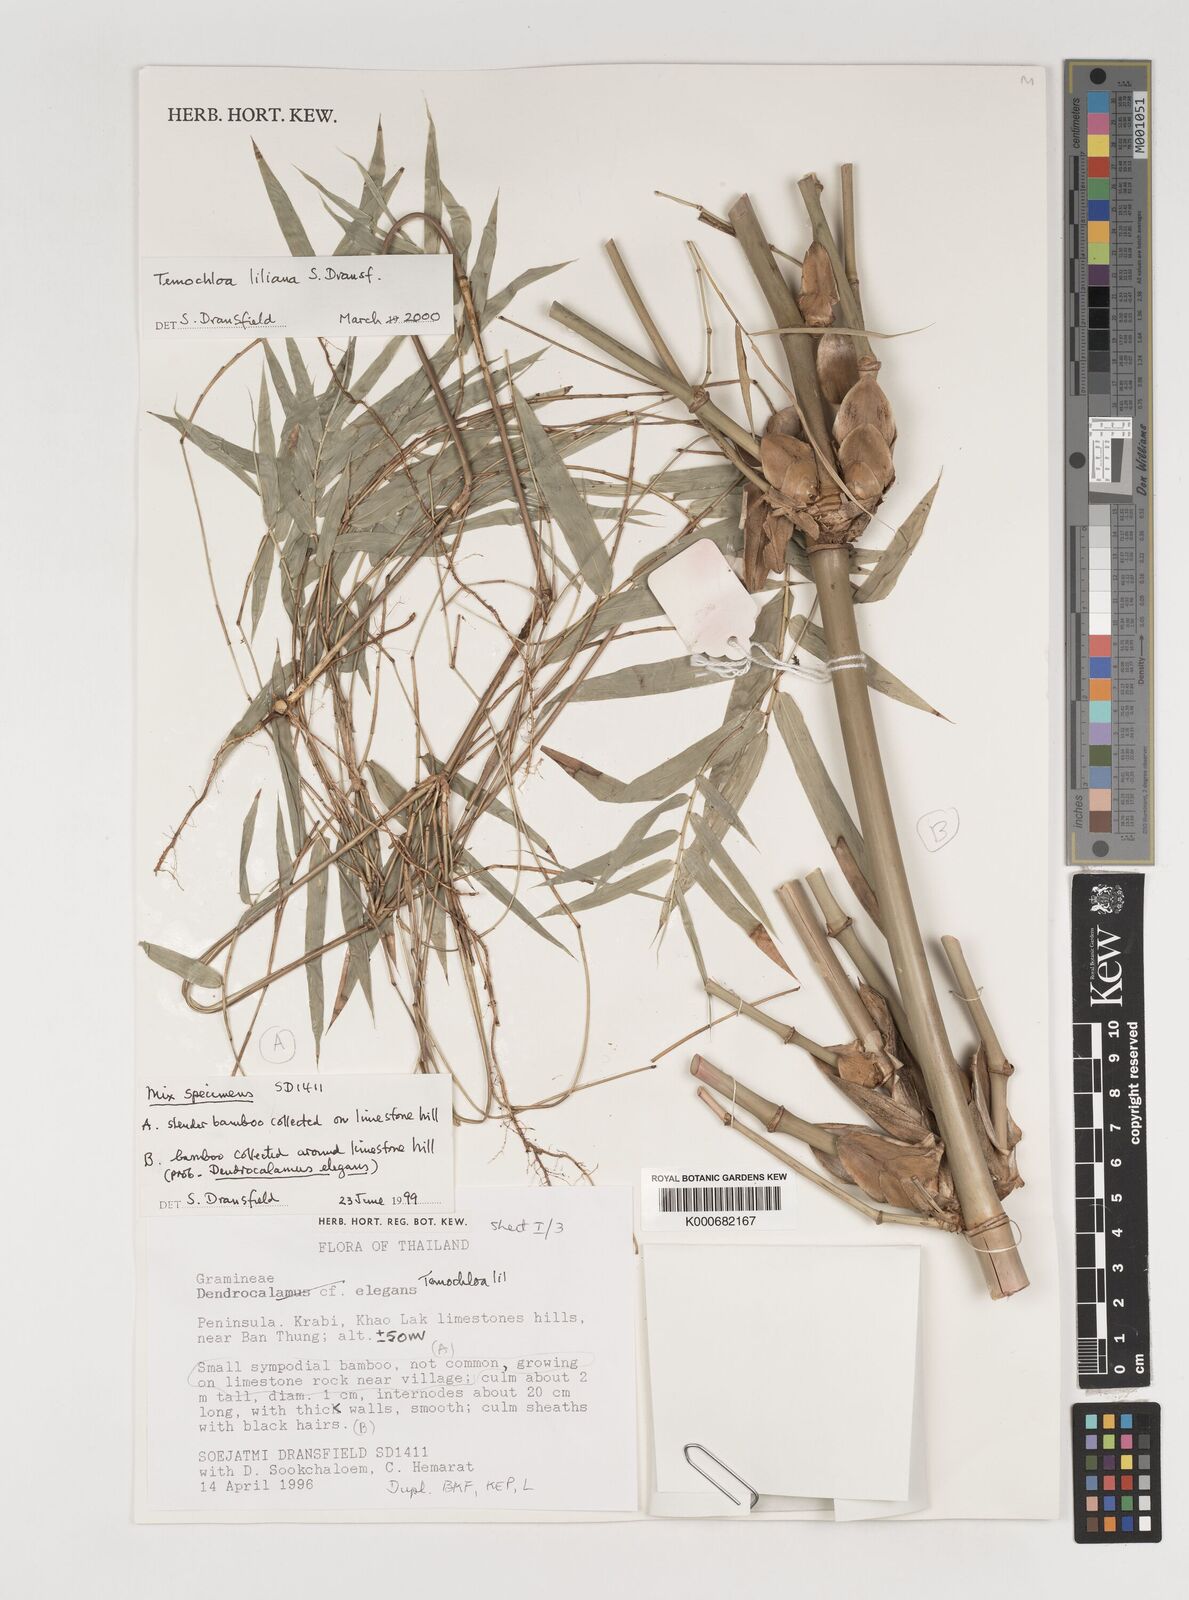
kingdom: Plantae
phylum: Tracheophyta
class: Liliopsida
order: Poales
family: Poaceae
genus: Temochloa
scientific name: Temochloa liliana
